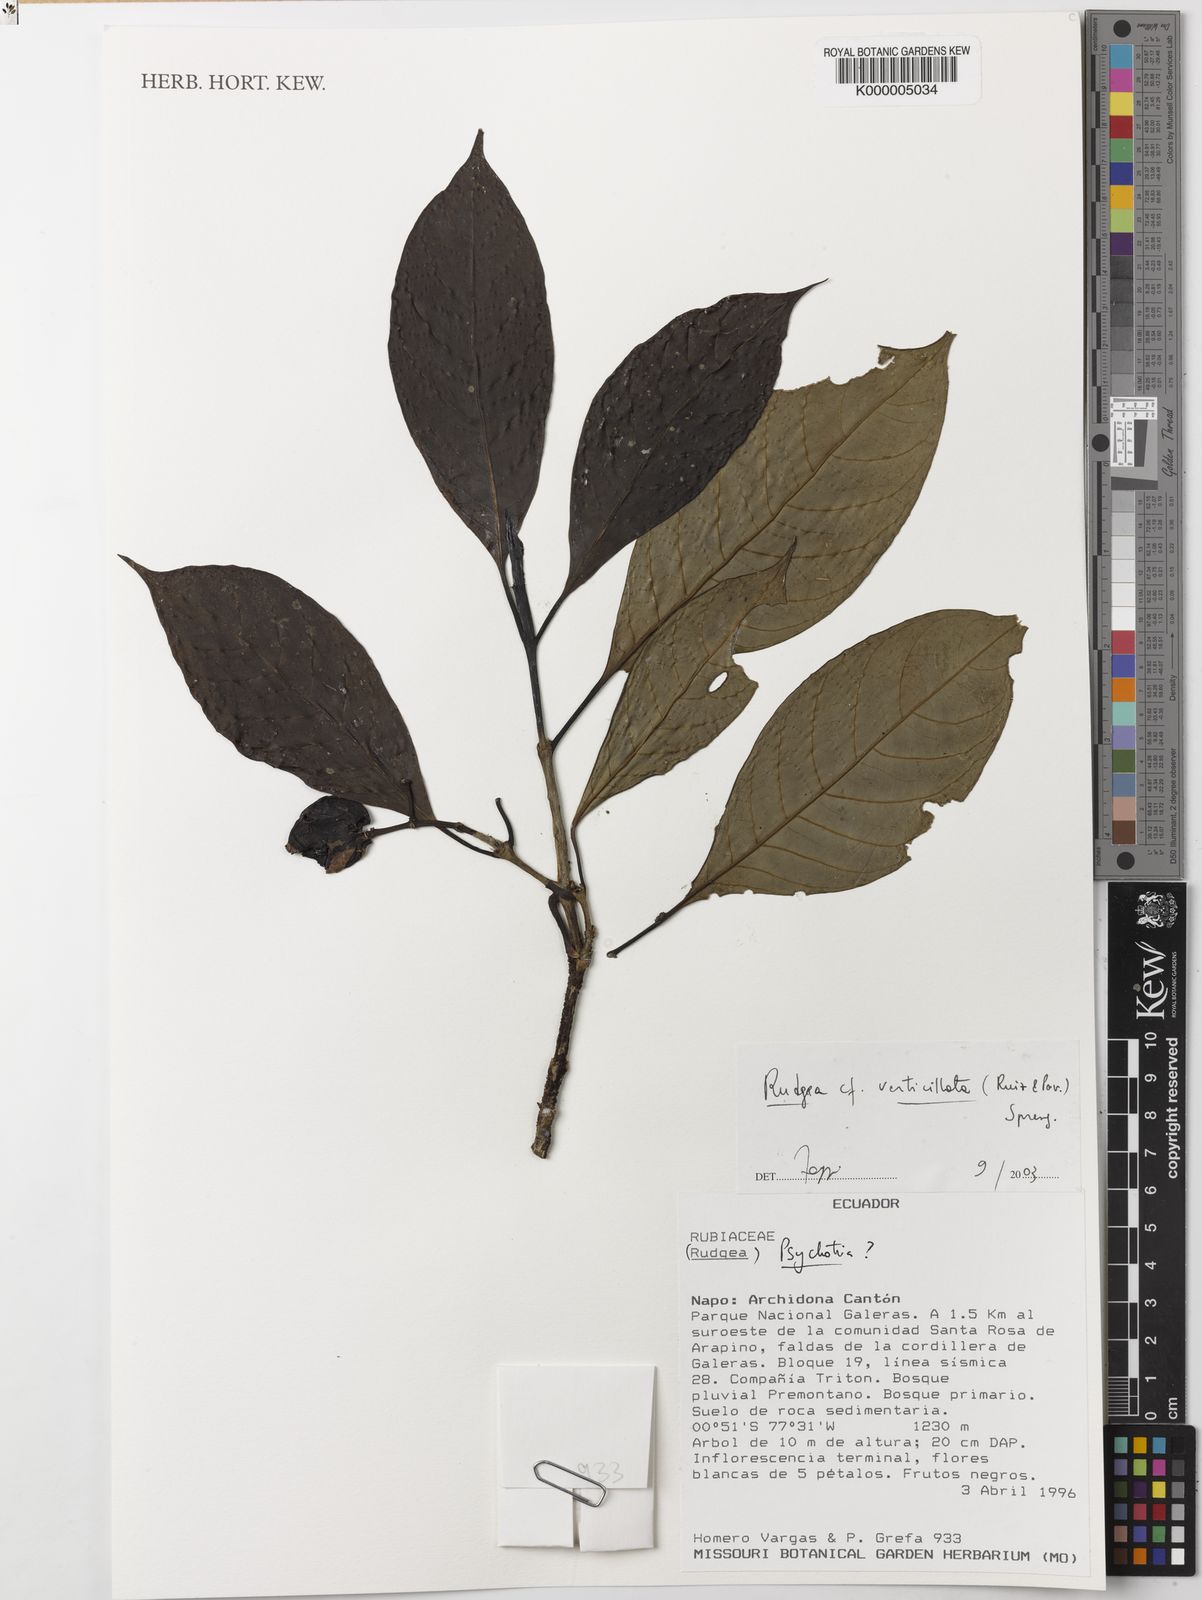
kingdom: Plantae
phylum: Tracheophyta
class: Magnoliopsida
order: Gentianales
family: Rubiaceae
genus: Rudgea
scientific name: Rudgea verticillata
